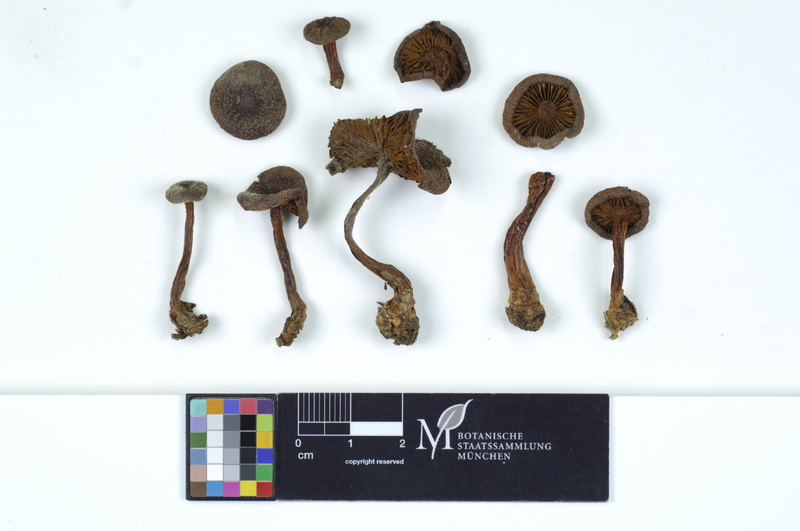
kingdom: Fungi
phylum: Basidiomycota
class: Agaricomycetes
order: Agaricales
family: Cortinariaceae
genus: Cortinarius
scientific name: Cortinarius anthracinus
